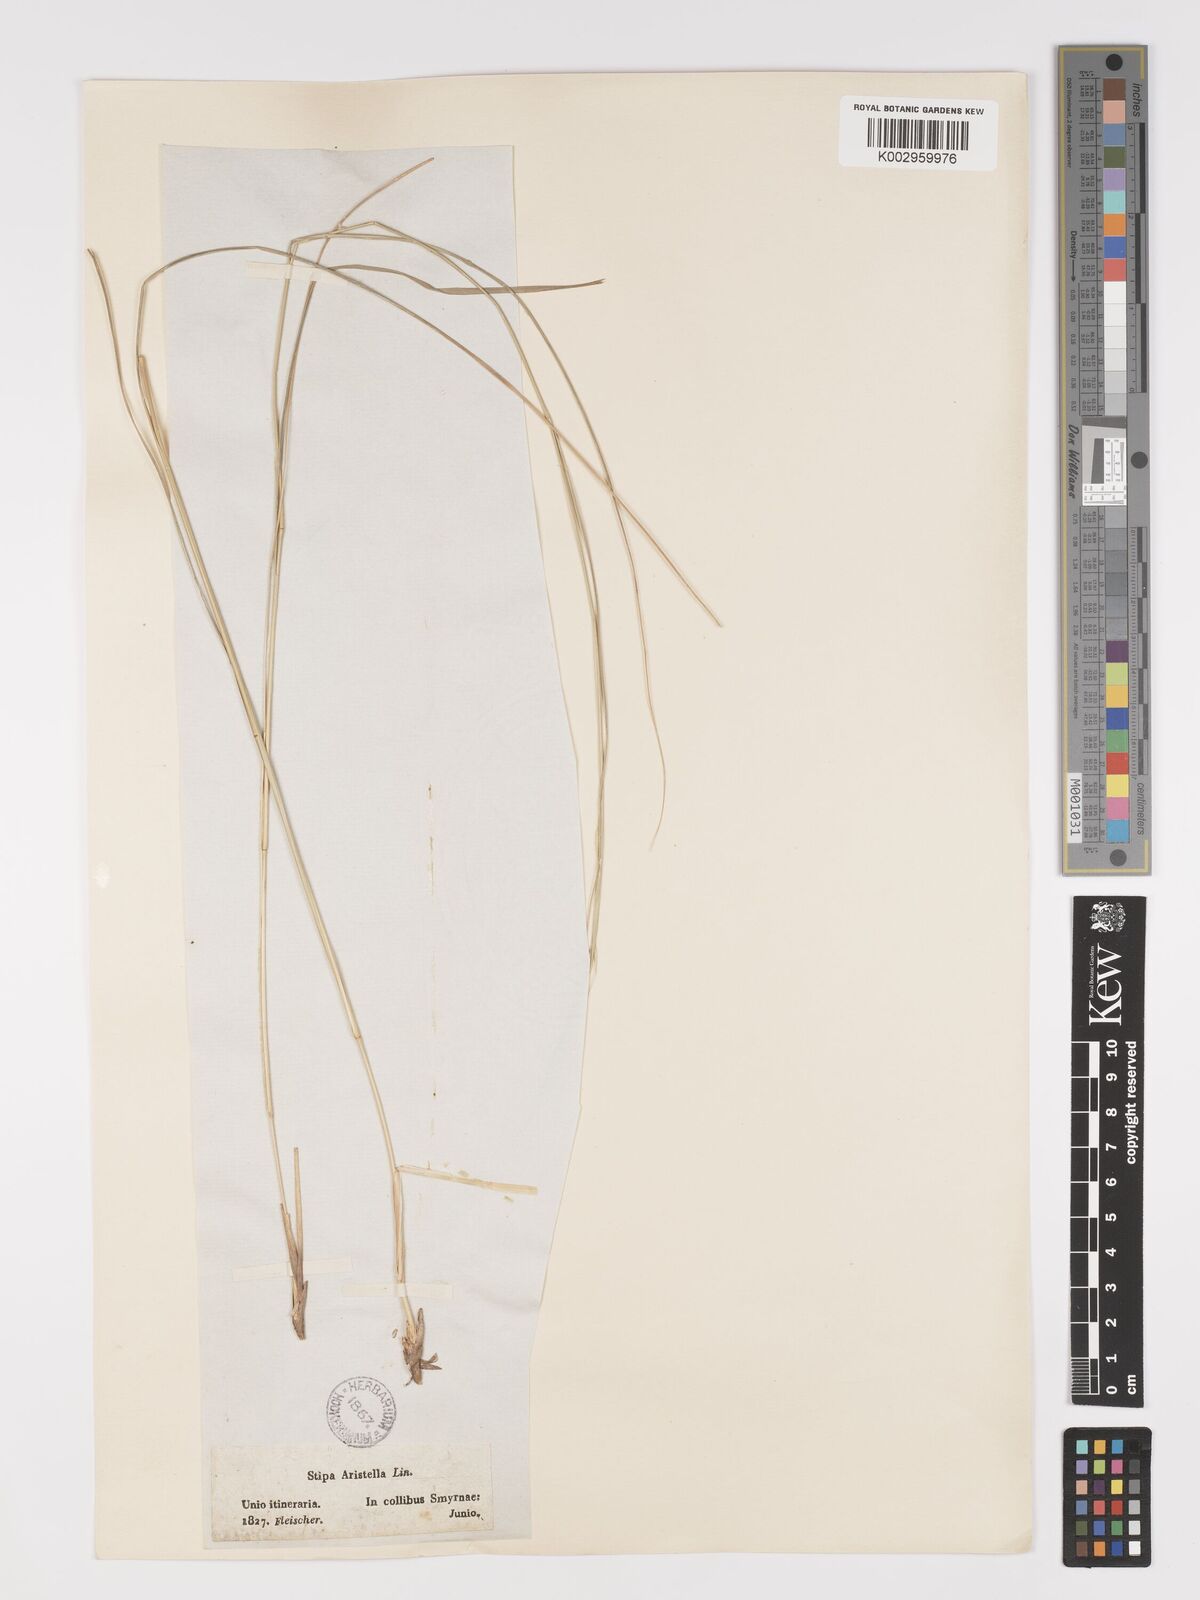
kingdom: Plantae
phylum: Tracheophyta
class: Liliopsida
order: Poales
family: Poaceae
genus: Achnatherum
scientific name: Achnatherum bromoides
